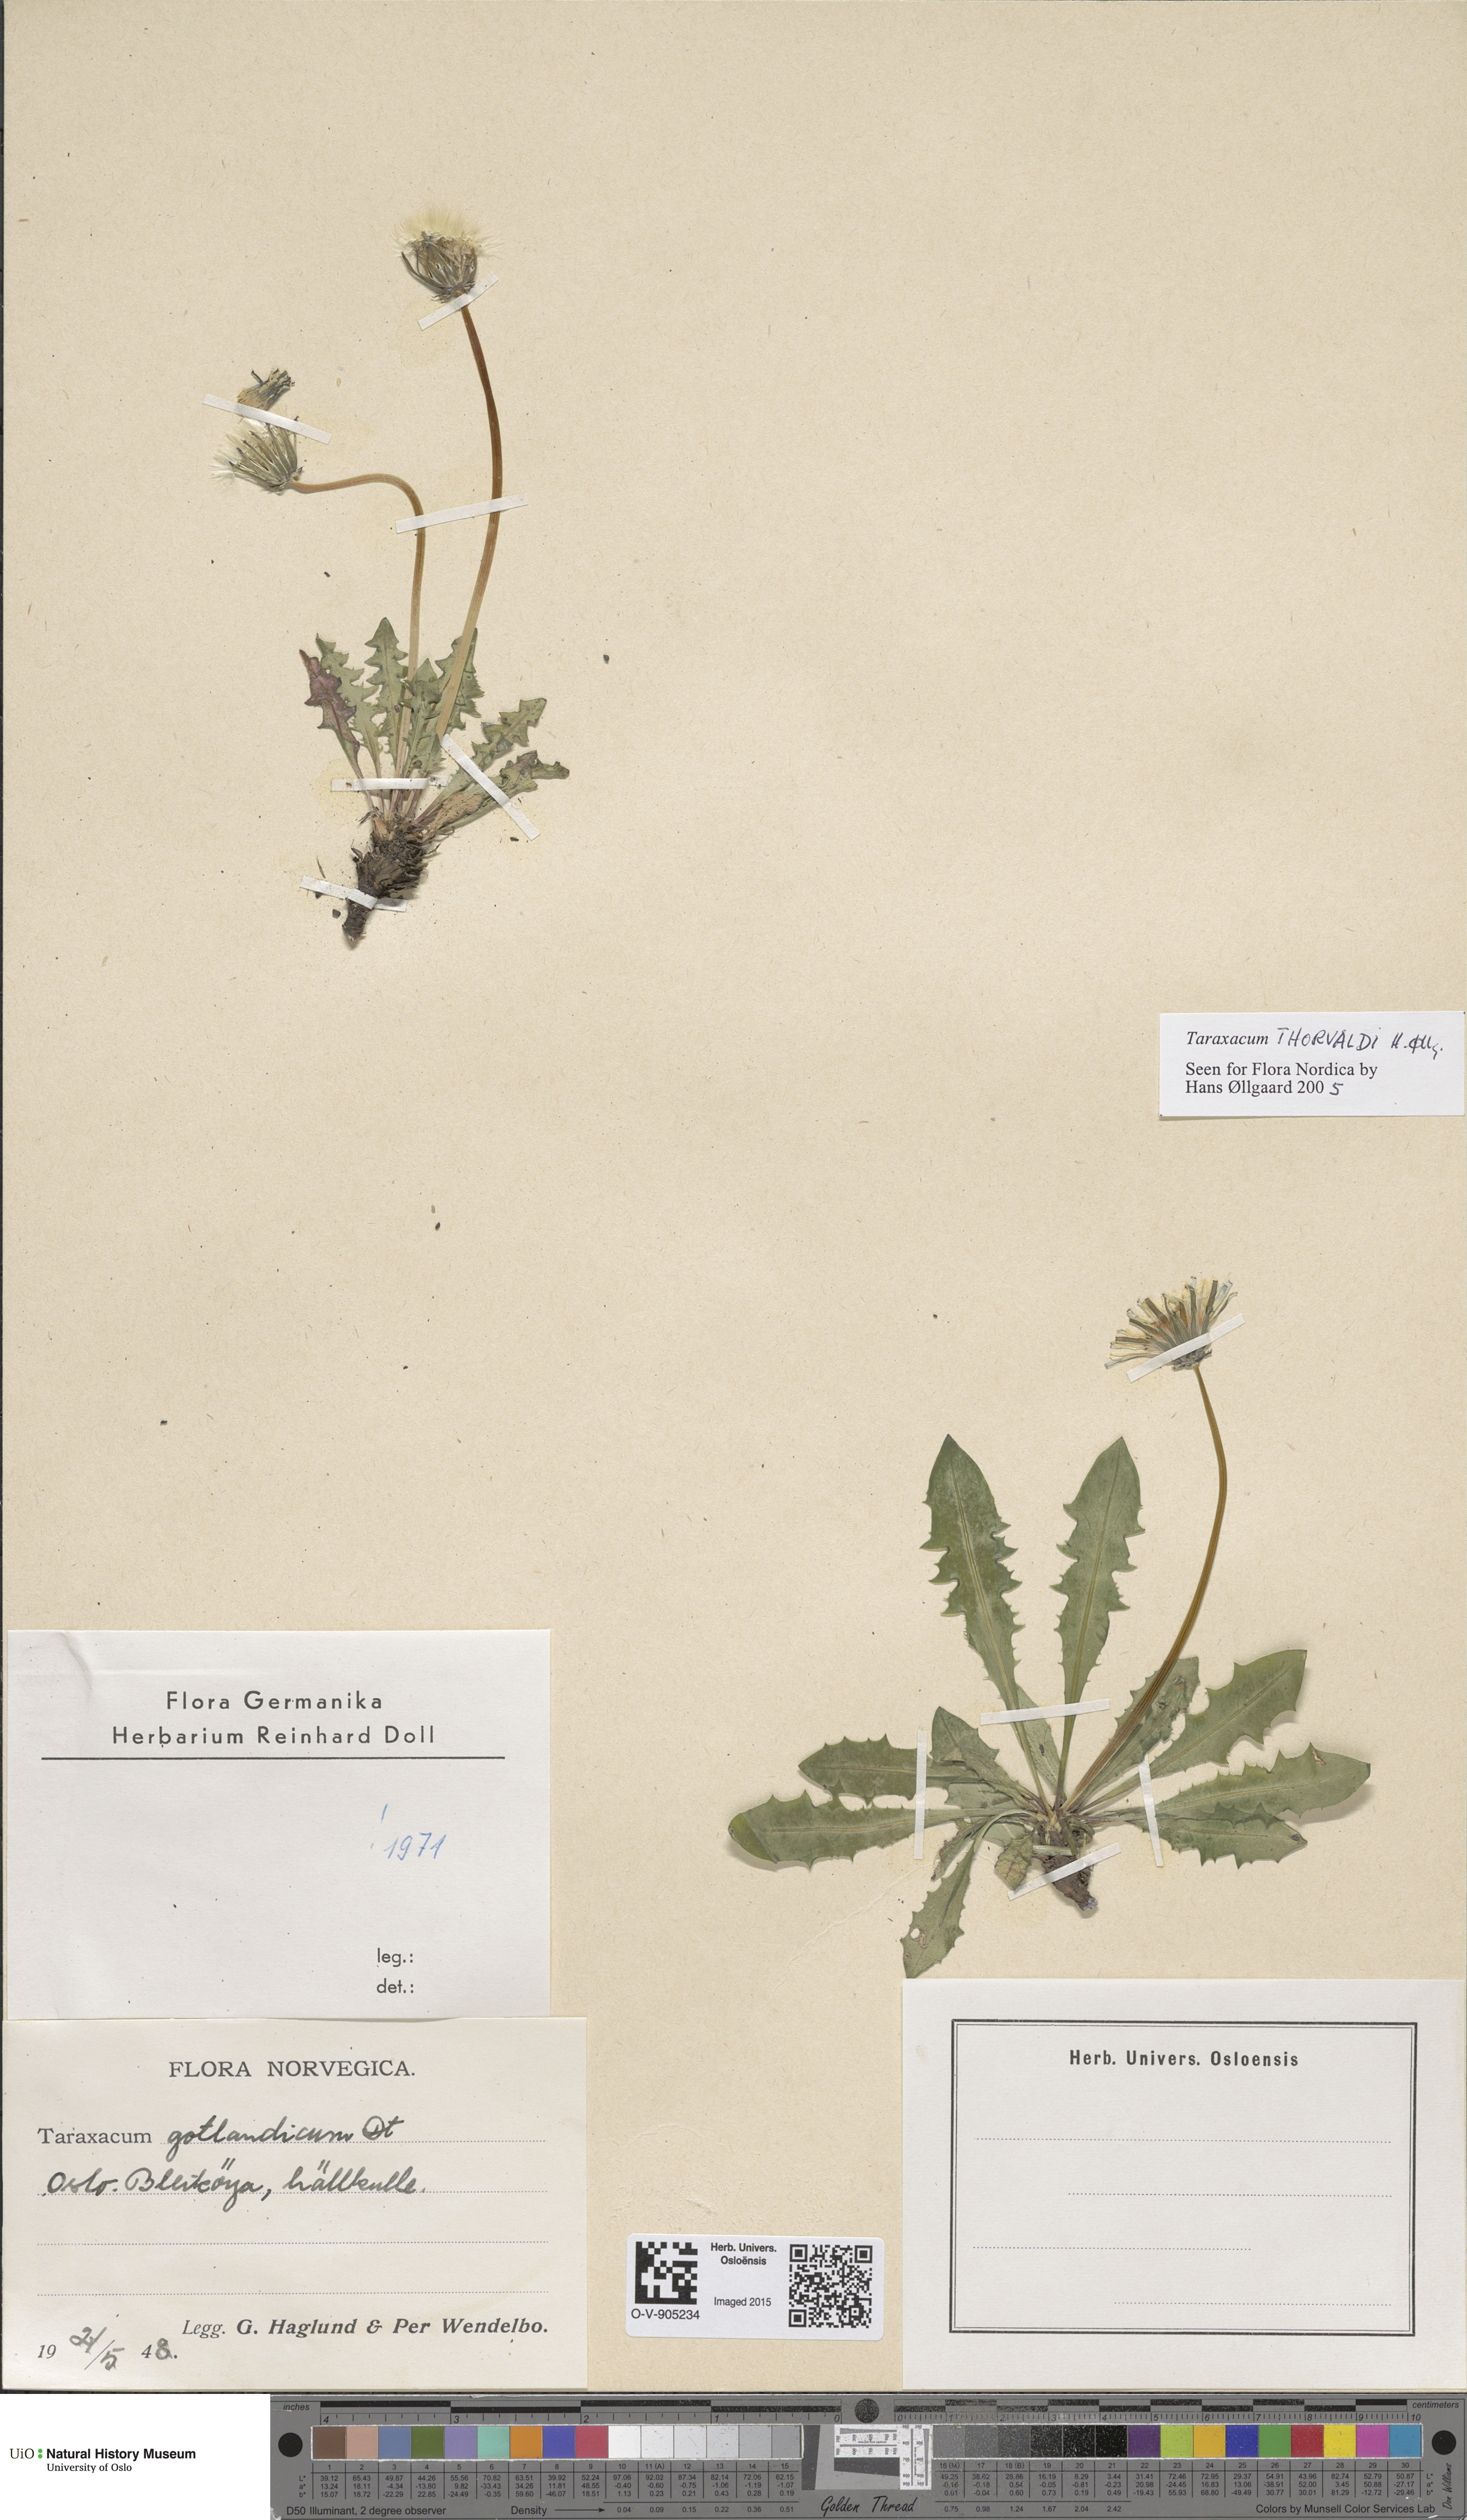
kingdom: Plantae
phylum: Tracheophyta
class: Magnoliopsida
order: Asterales
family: Asteraceae
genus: Taraxacum
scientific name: Taraxacum thorvaldii
